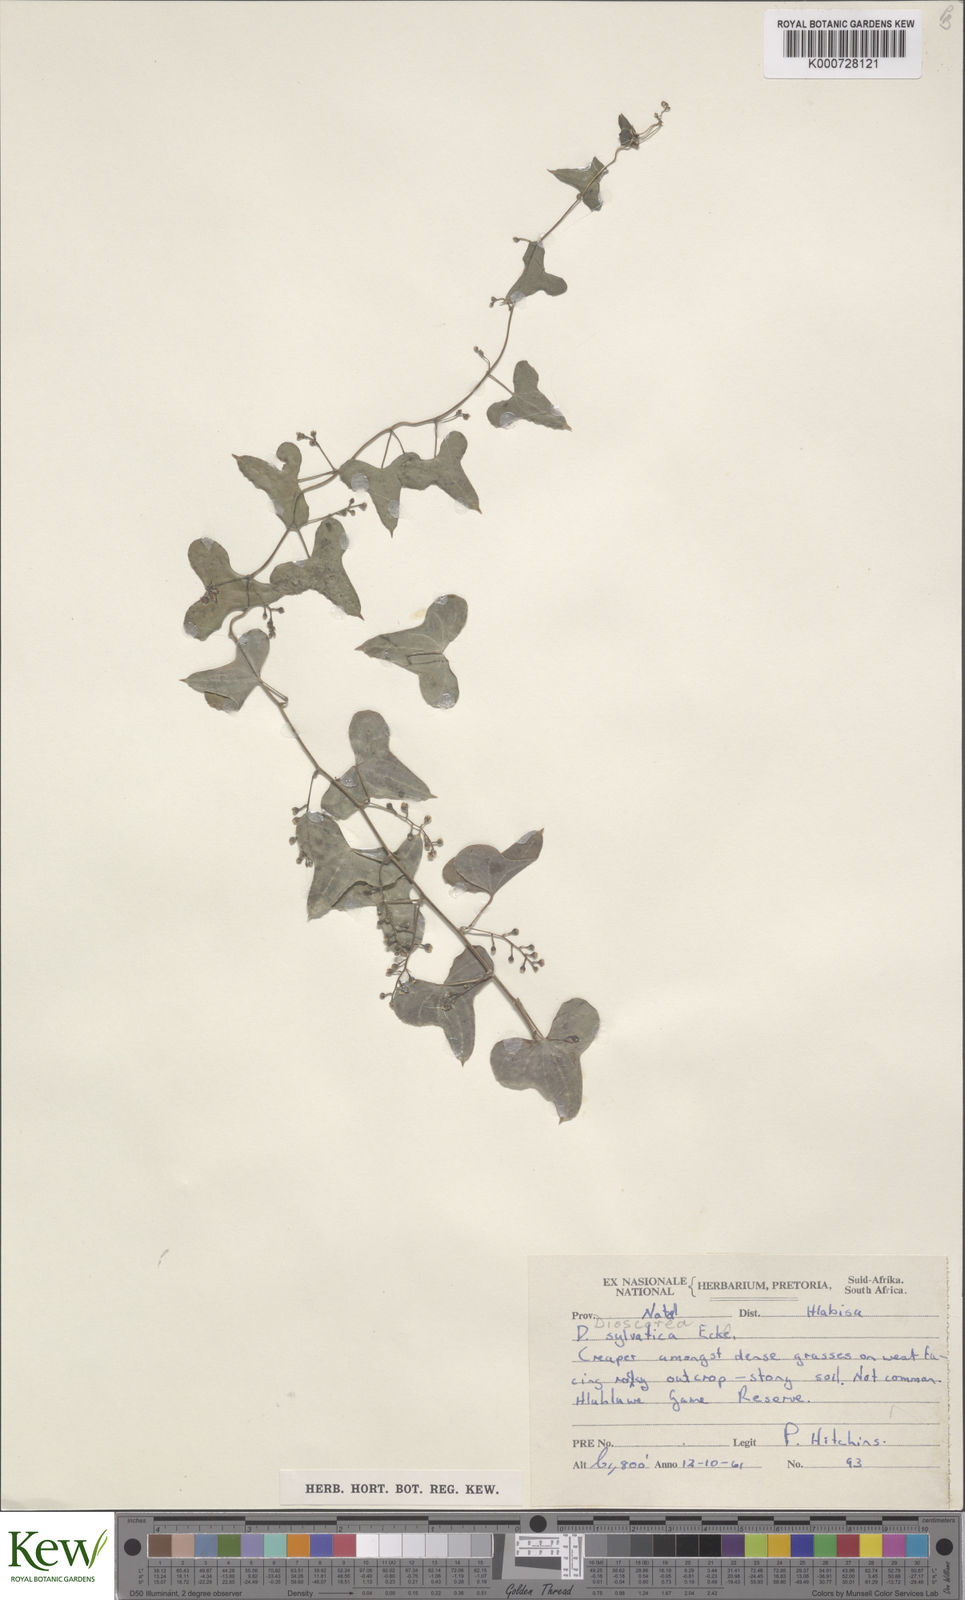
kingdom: Plantae
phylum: Tracheophyta
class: Liliopsida
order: Dioscoreales
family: Dioscoreaceae
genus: Dioscorea
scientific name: Dioscorea sylvatica
